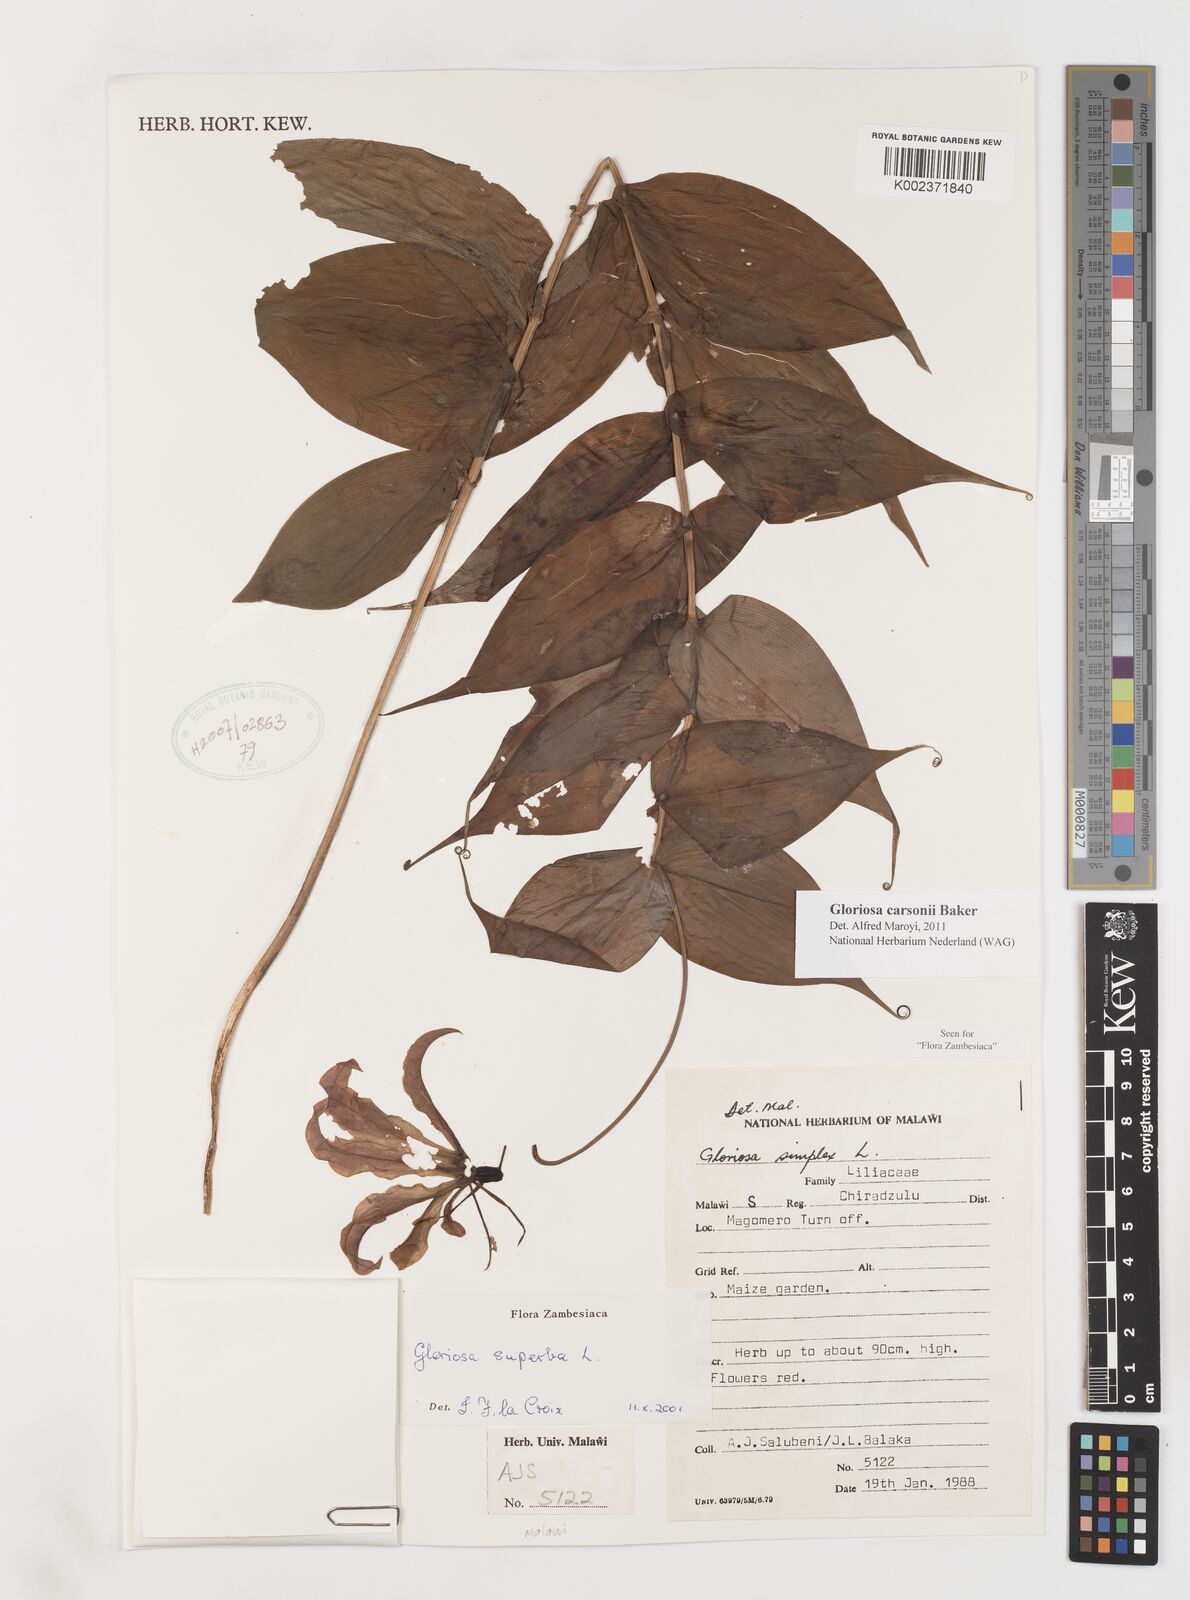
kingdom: Plantae
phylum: Tracheophyta
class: Liliopsida
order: Liliales
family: Colchicaceae
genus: Gloriosa
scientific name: Gloriosa simplex
